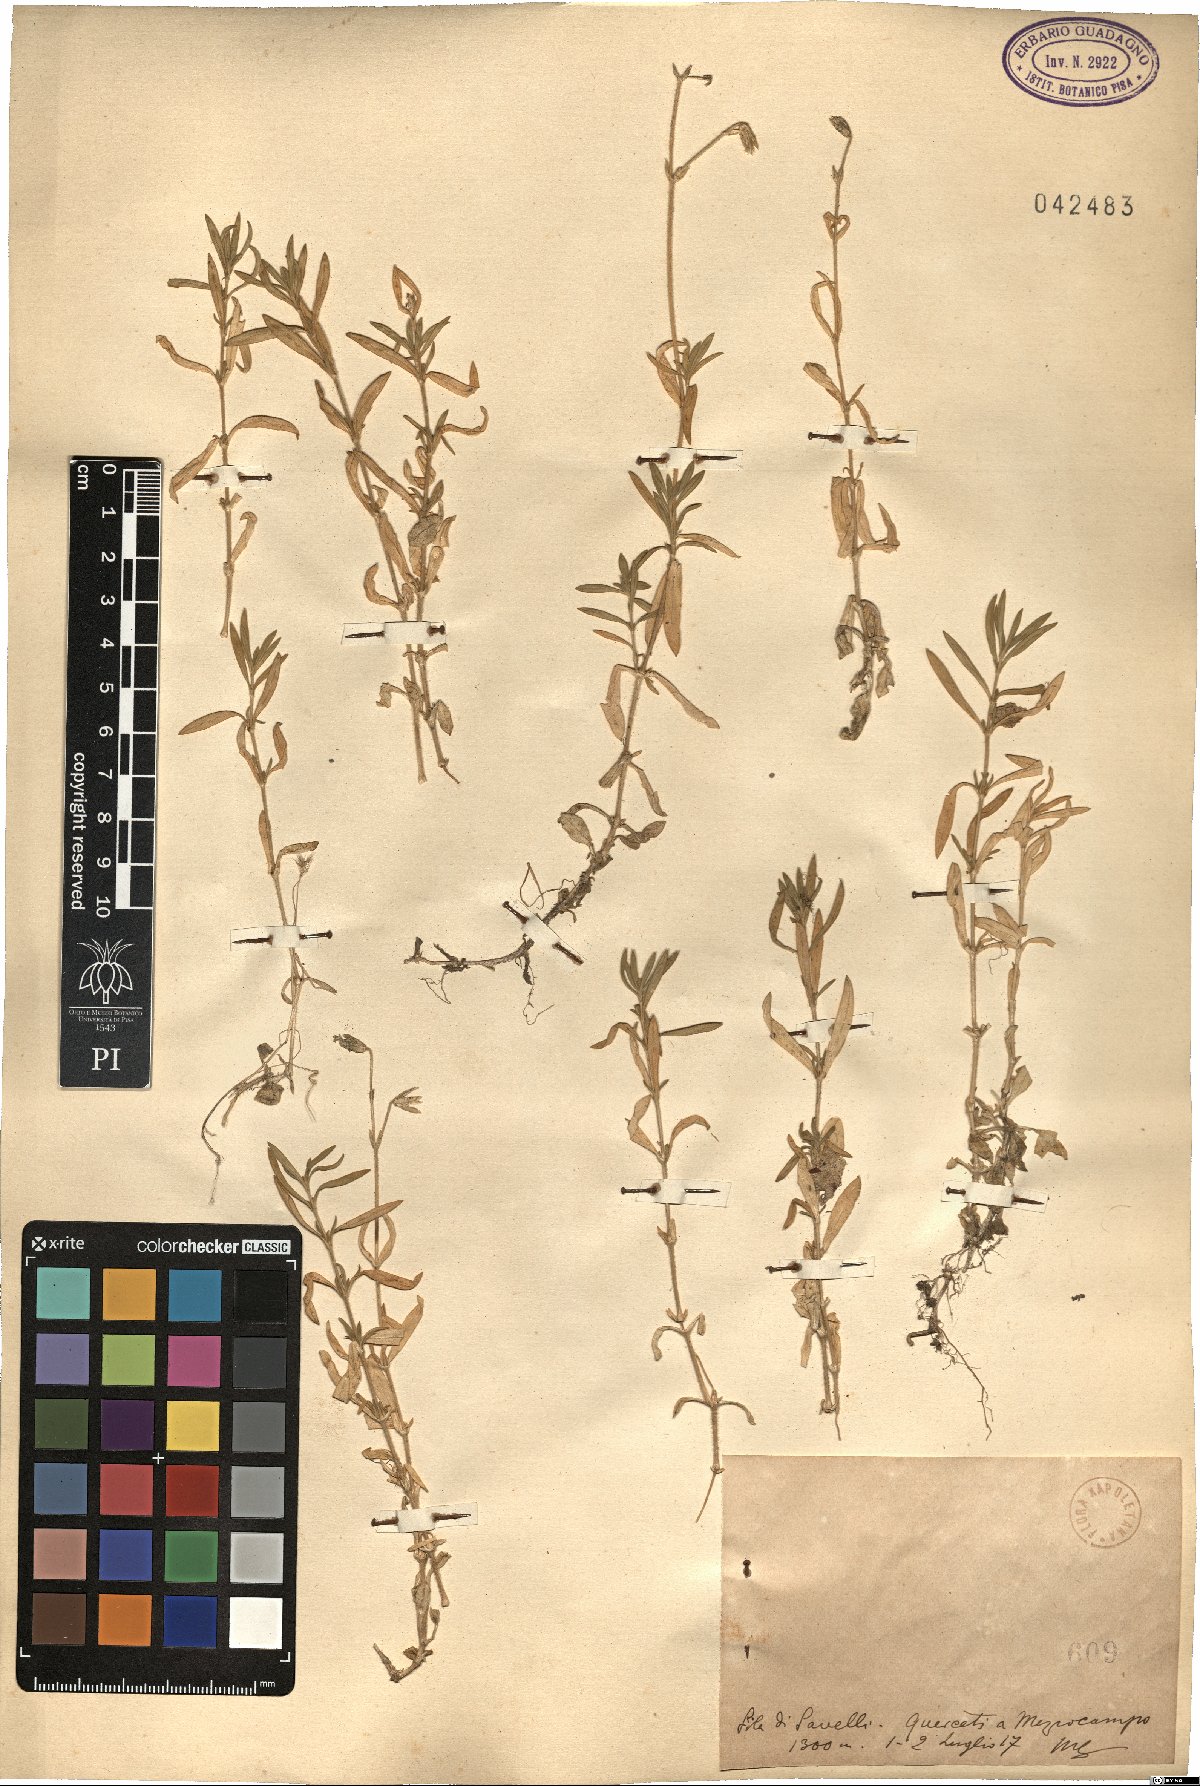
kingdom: Plantae
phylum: Tracheophyta
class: Magnoliopsida
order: Caryophyllales
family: Caryophyllaceae
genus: Cerastium
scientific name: Cerastium
